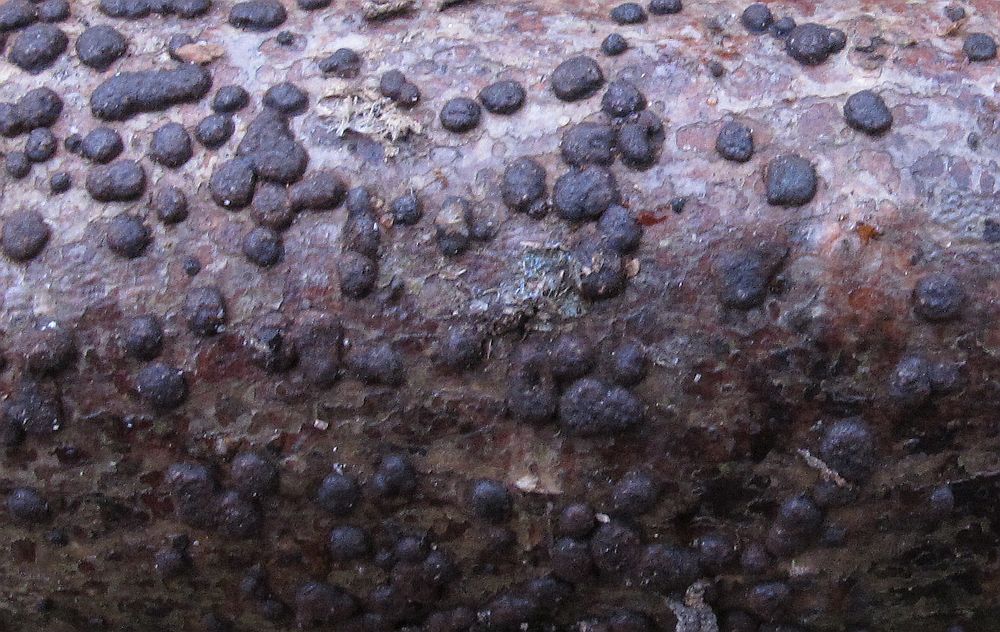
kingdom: Fungi
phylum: Ascomycota
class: Sordariomycetes
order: Xylariales
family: Hypoxylaceae
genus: Hypoxylon
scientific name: Hypoxylon
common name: kulbær
